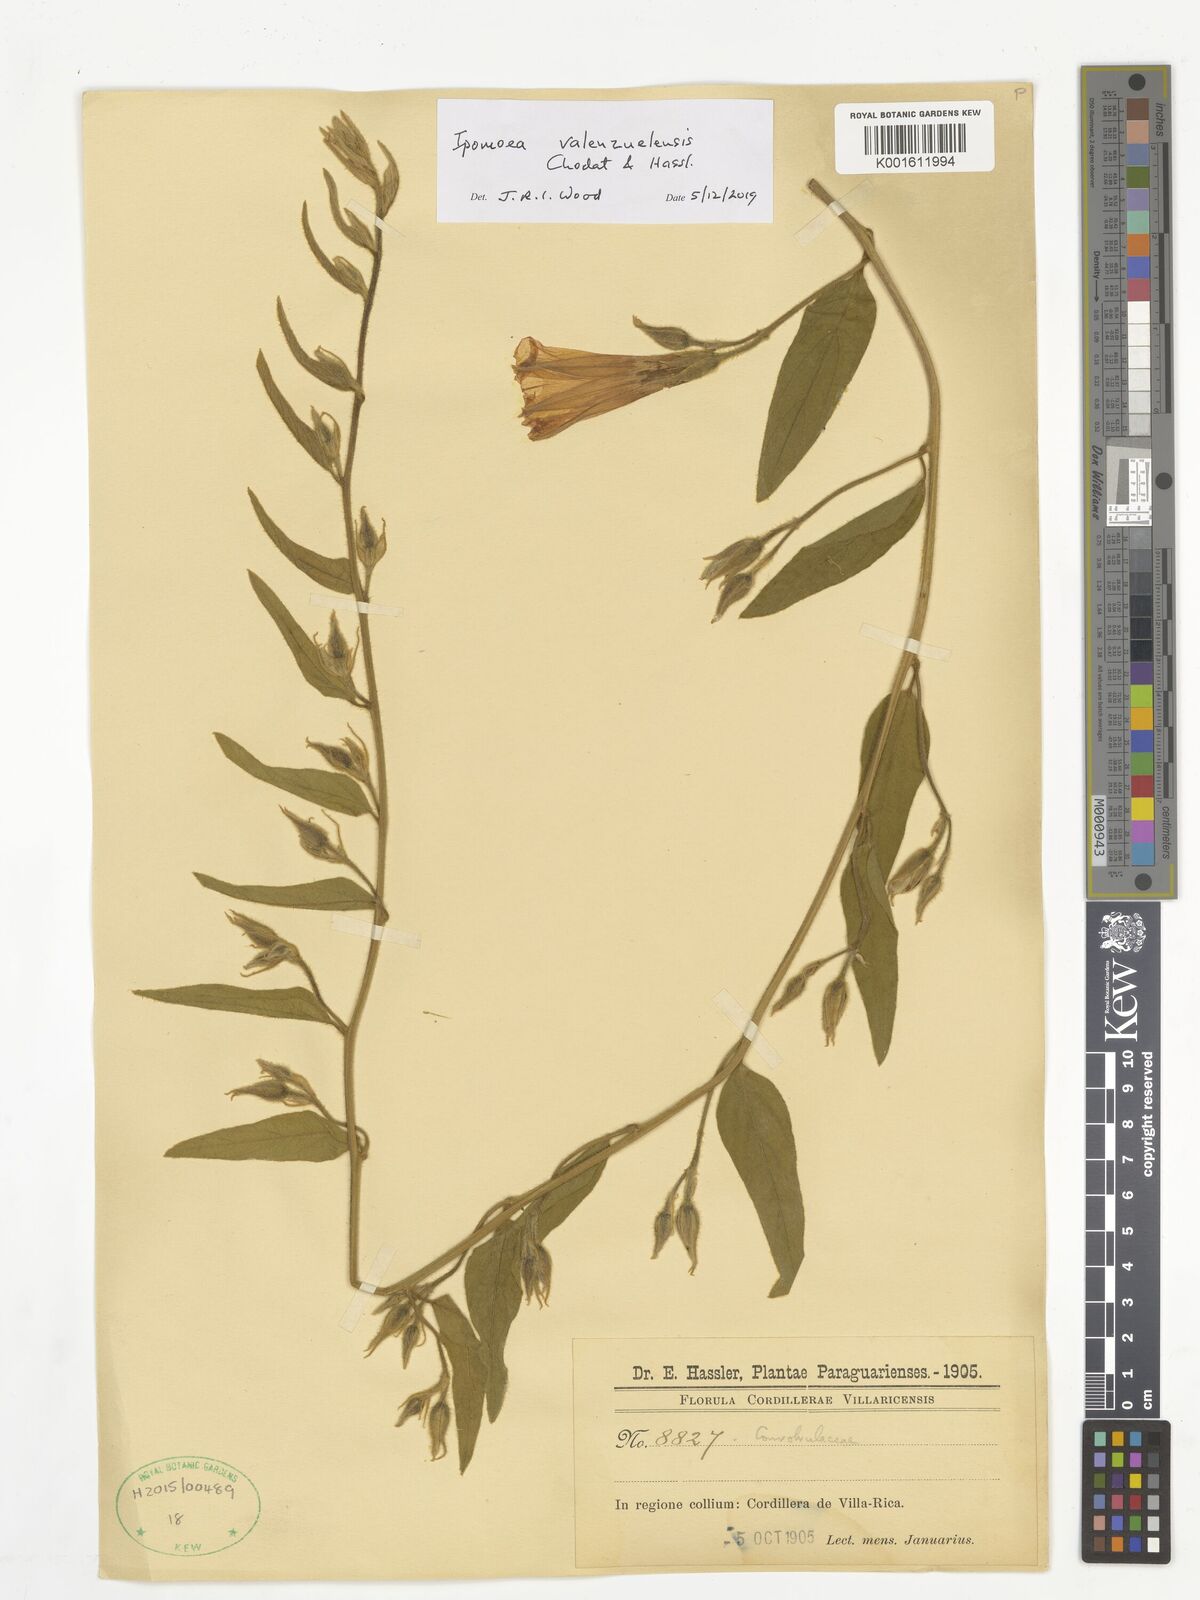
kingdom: Plantae
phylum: Tracheophyta
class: Magnoliopsida
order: Solanales
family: Convolvulaceae
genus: Ipomoea
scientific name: Ipomoea valenzuelensis
